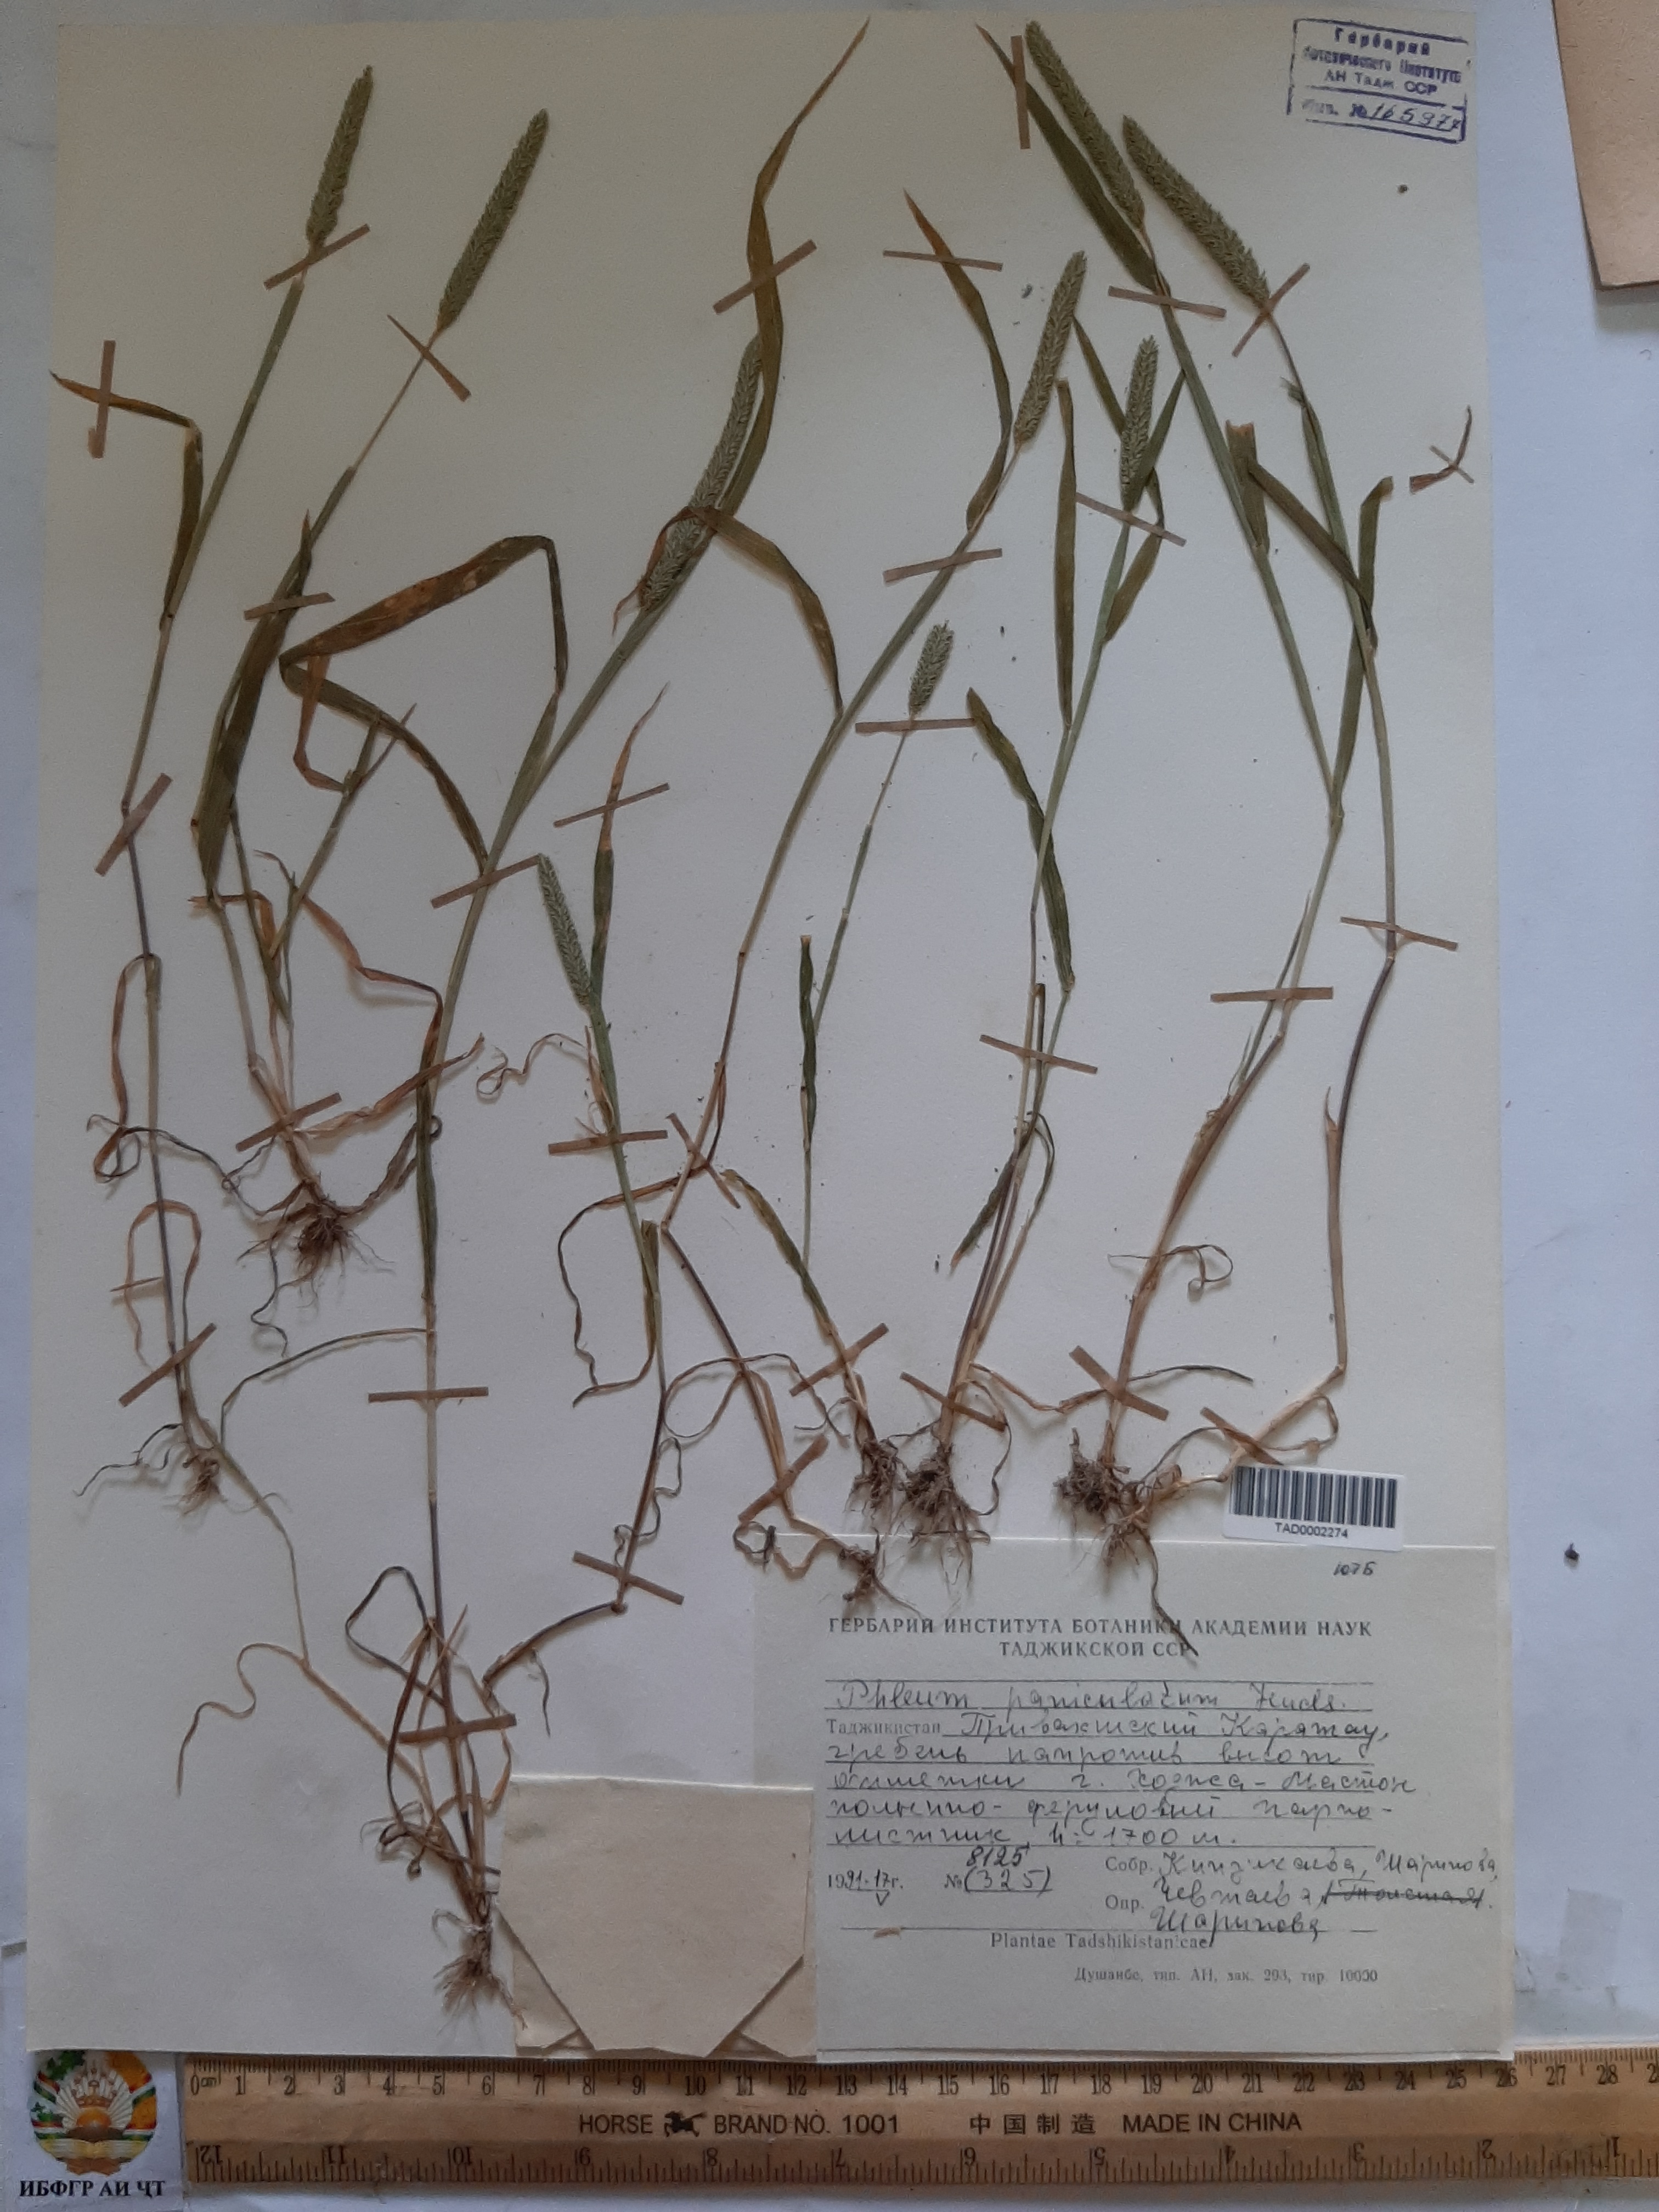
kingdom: Plantae
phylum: Tracheophyta
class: Liliopsida
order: Poales
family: Poaceae
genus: Phleum
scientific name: Phleum paniculatum
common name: British timothy
